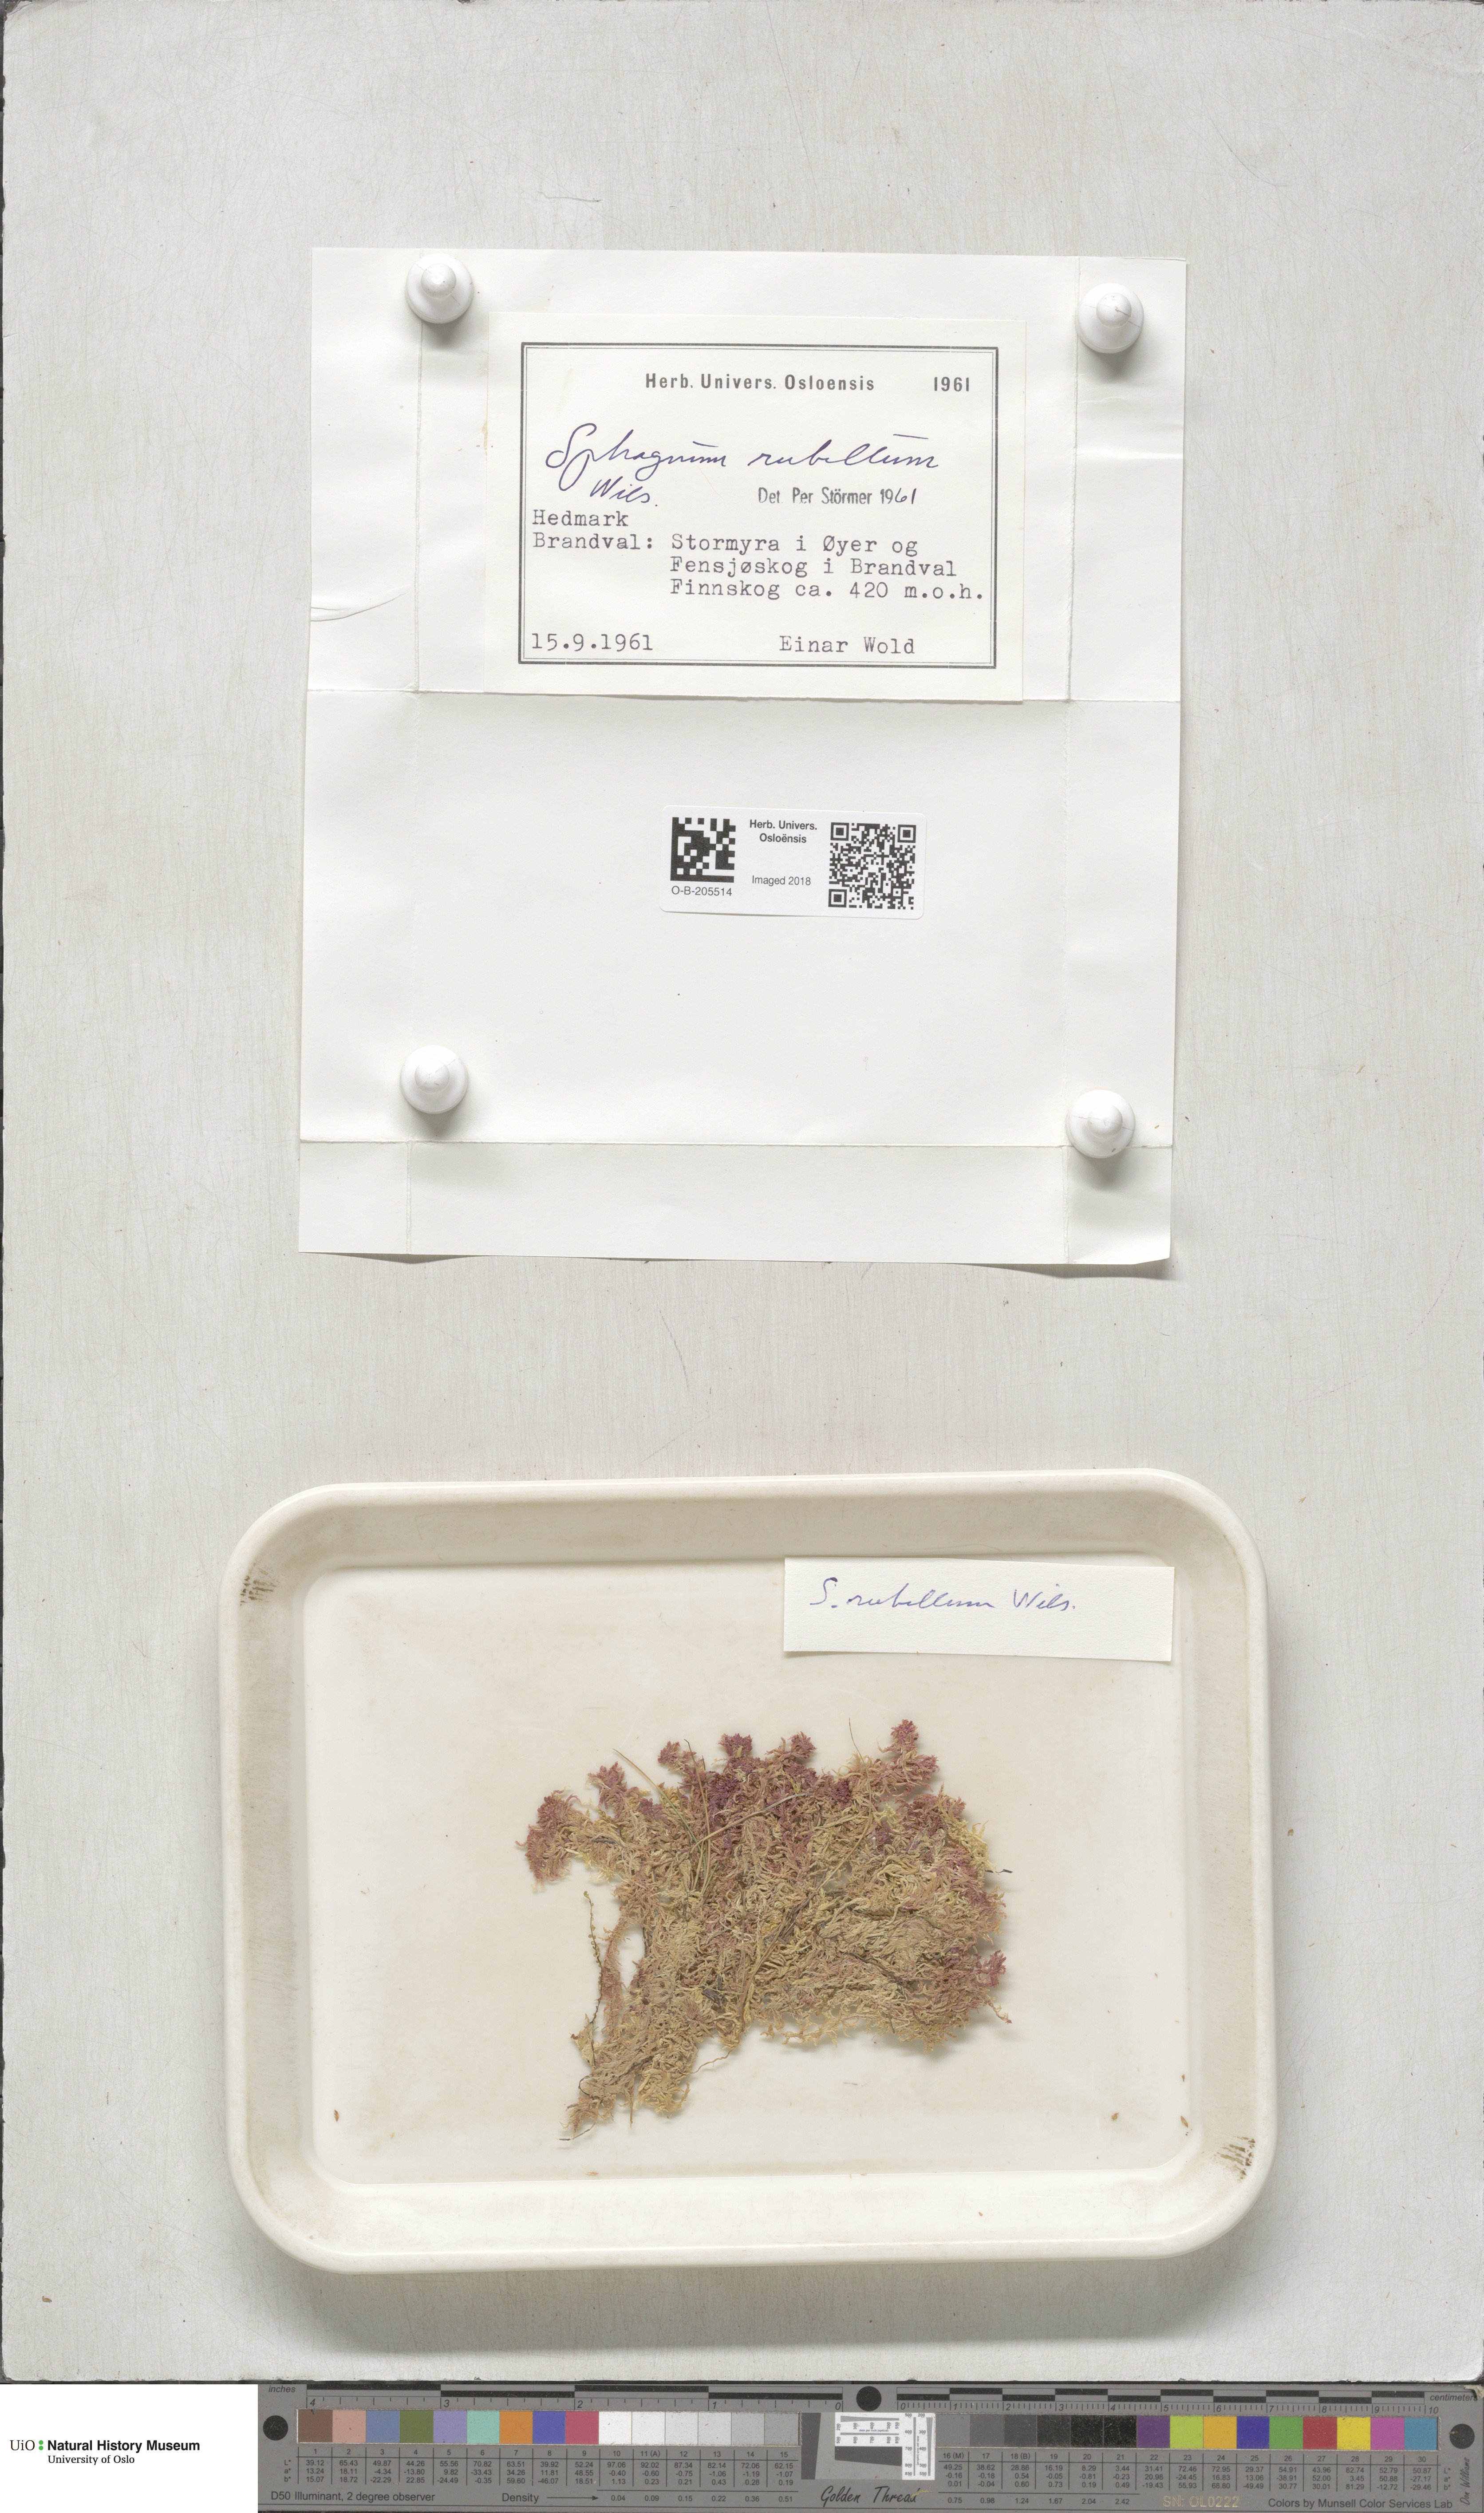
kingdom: Plantae
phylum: Bryophyta
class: Sphagnopsida
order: Sphagnales
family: Sphagnaceae
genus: Sphagnum
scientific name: Sphagnum rubellum
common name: Red peat moss
